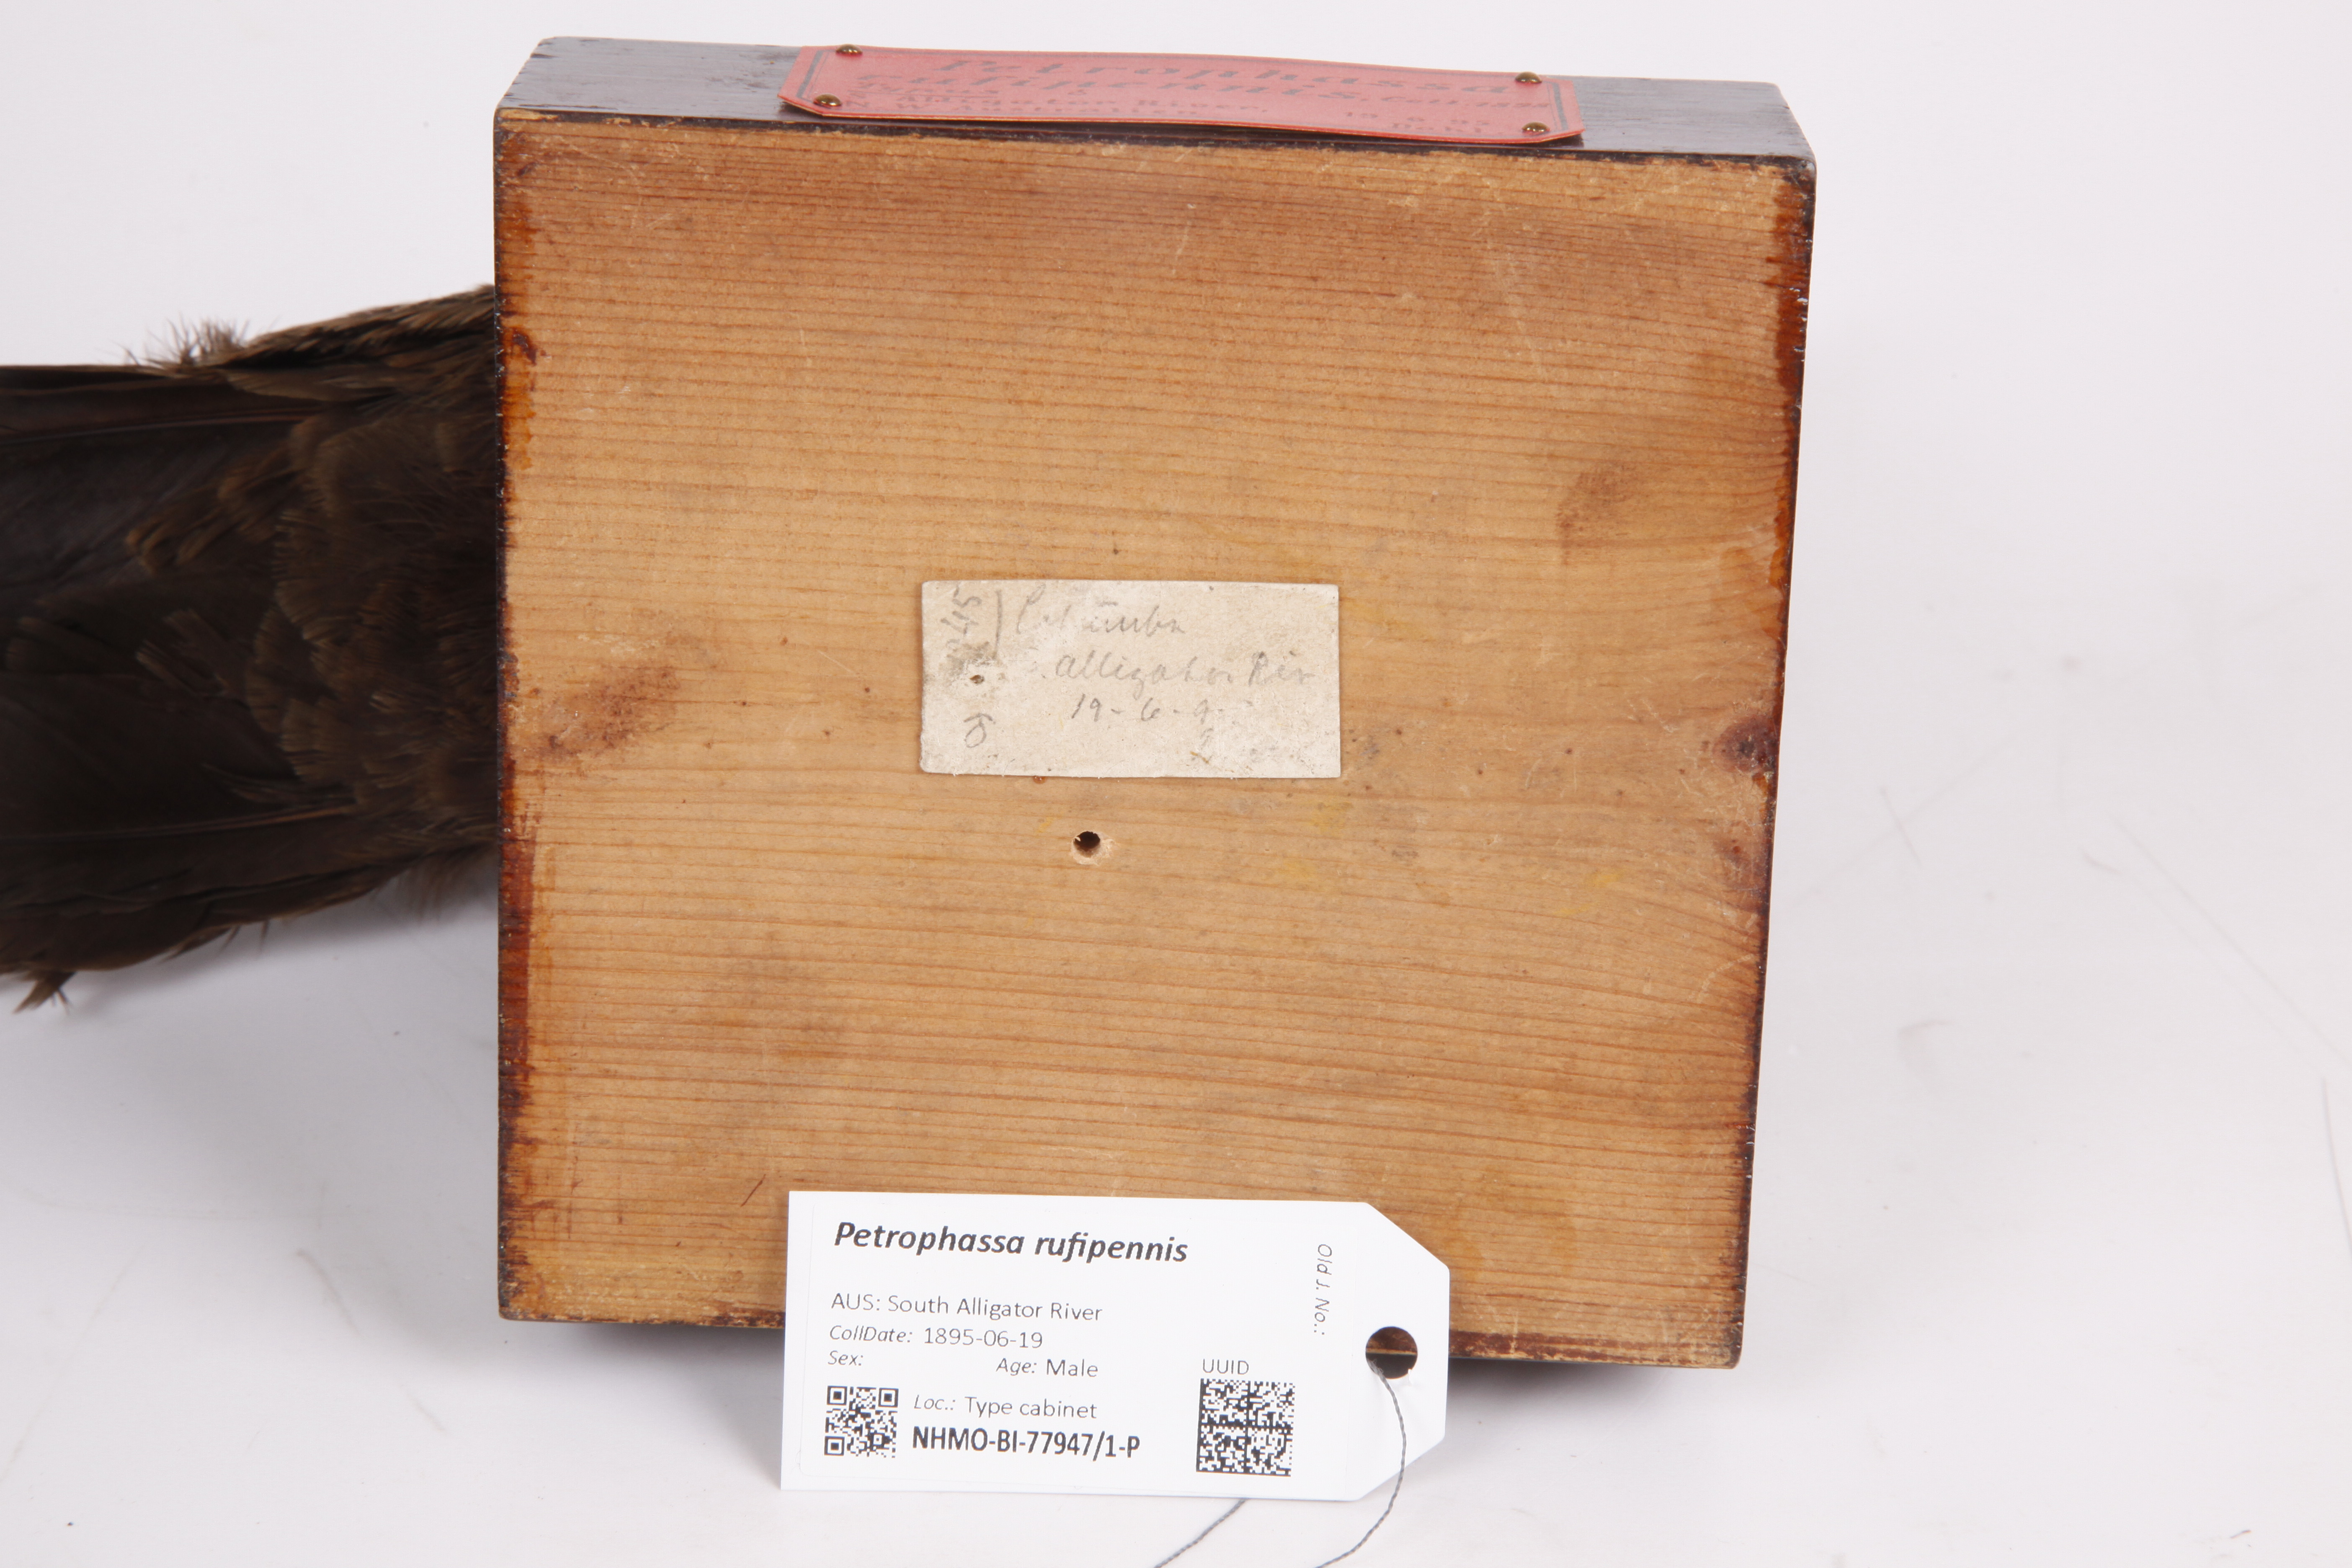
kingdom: Animalia
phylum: Chordata
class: Aves
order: Columbiformes
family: Columbidae
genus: Petrophassa
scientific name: Petrophassa rufipennis
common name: Chestnut-quilled rock pigeon
